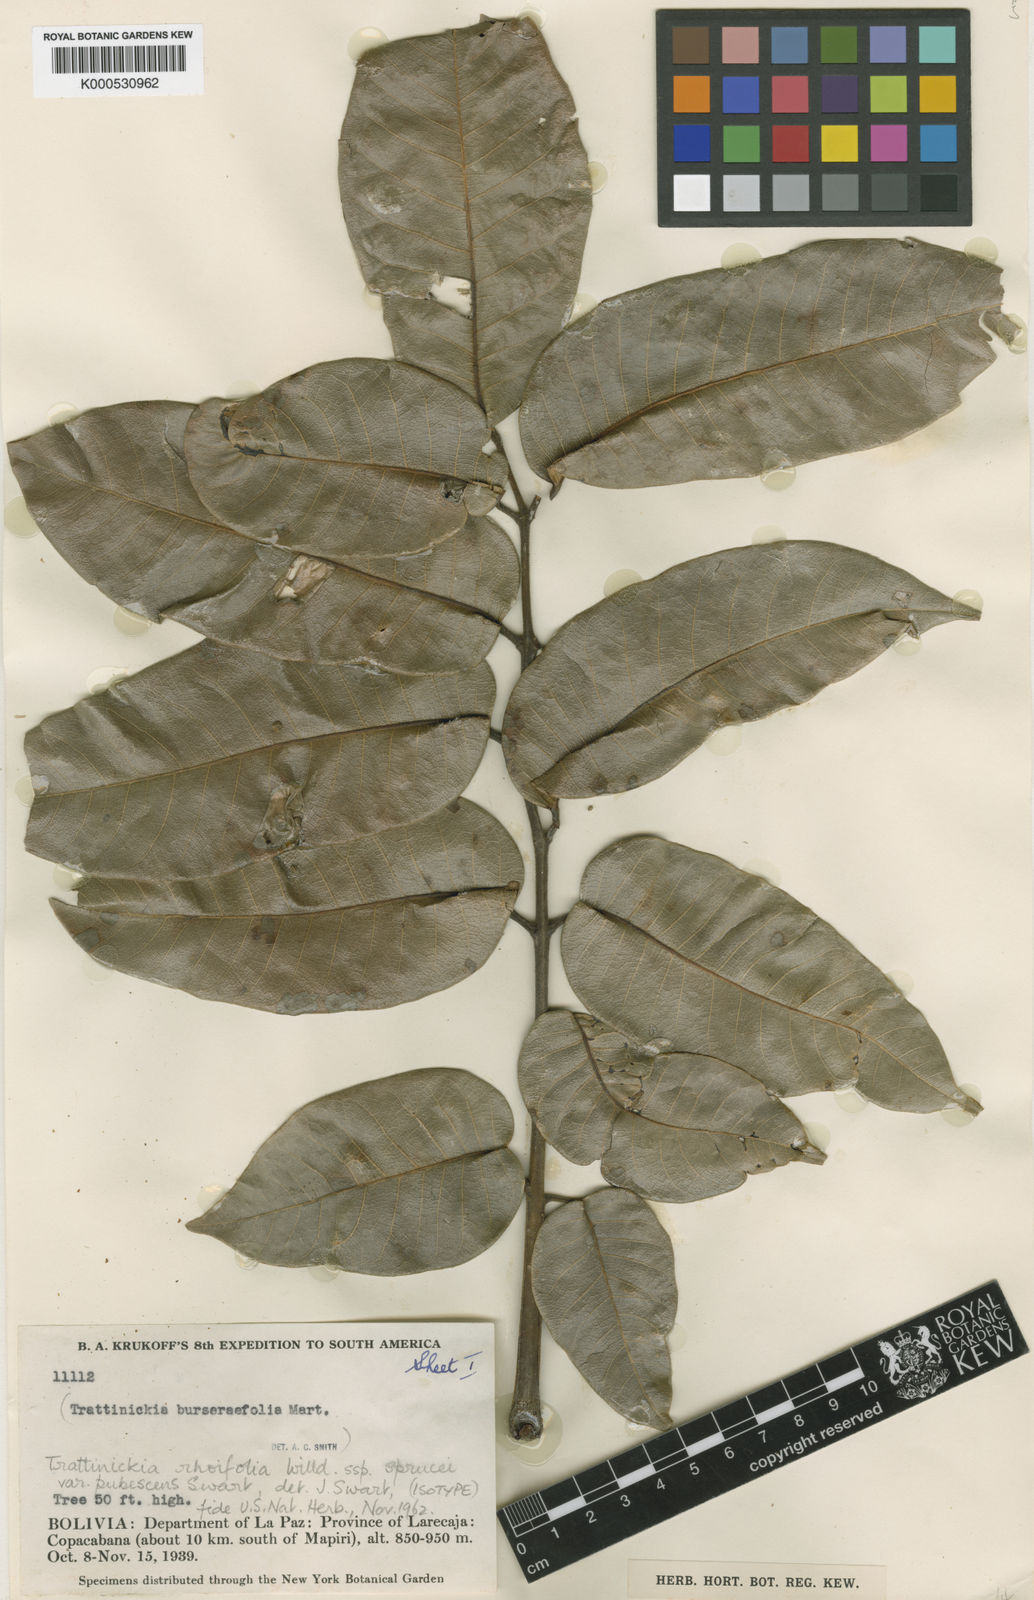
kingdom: Plantae
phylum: Tracheophyta
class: Magnoliopsida
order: Sapindales
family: Burseraceae
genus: Trattinnickia
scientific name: Trattinnickia peruviana
